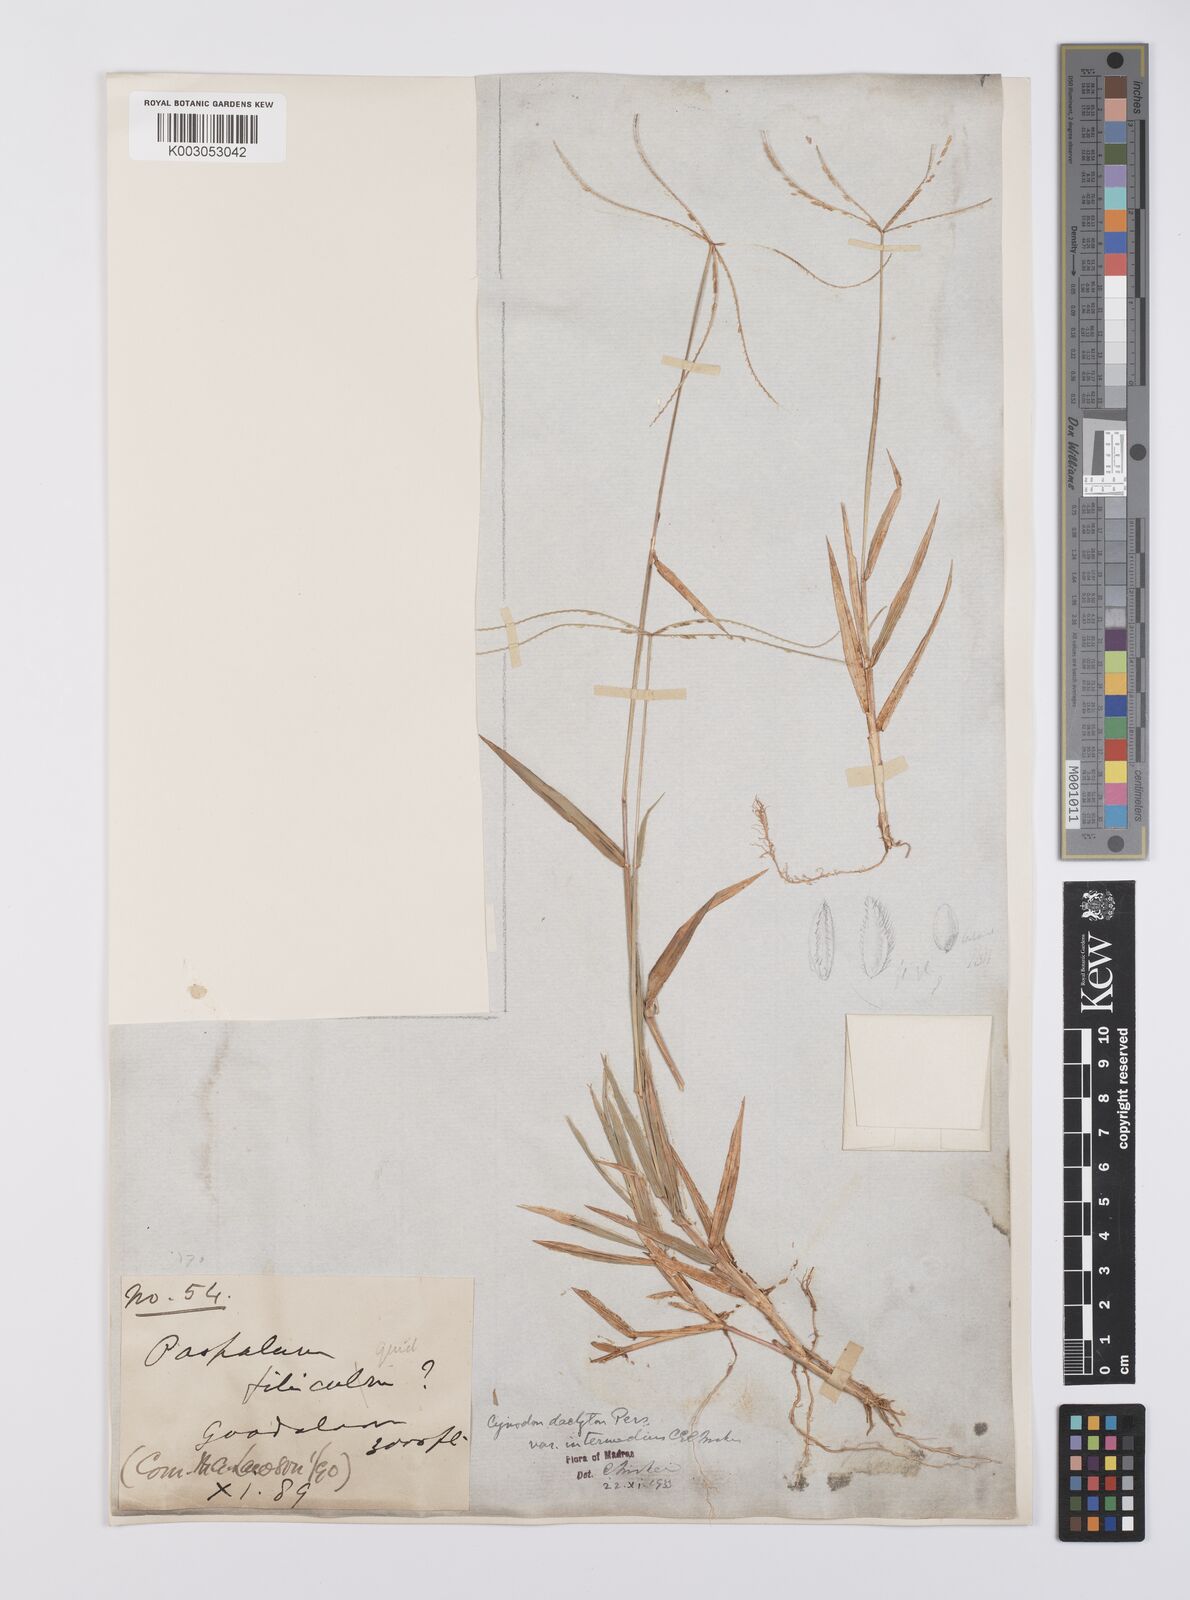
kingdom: Plantae
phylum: Tracheophyta
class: Liliopsida
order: Poales
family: Poaceae
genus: Cynodon
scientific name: Cynodon radiatus
